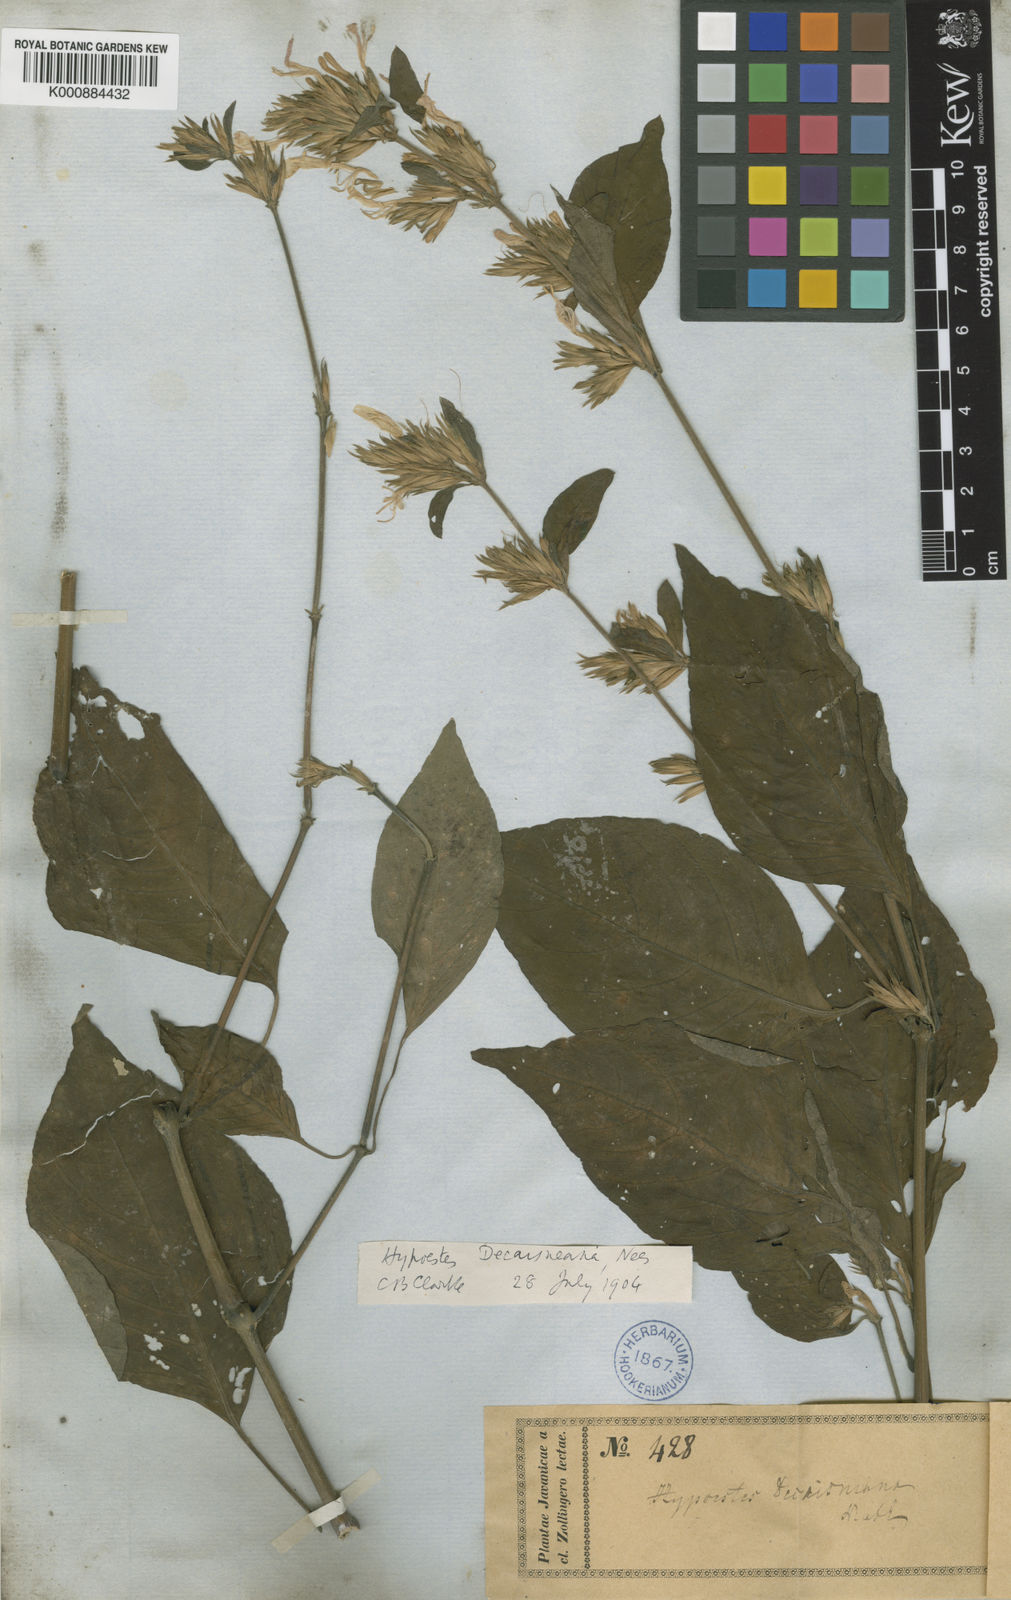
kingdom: Plantae
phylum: Tracheophyta
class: Magnoliopsida
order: Lamiales
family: Acanthaceae
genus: Hypoestes
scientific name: Hypoestes decaisneana
